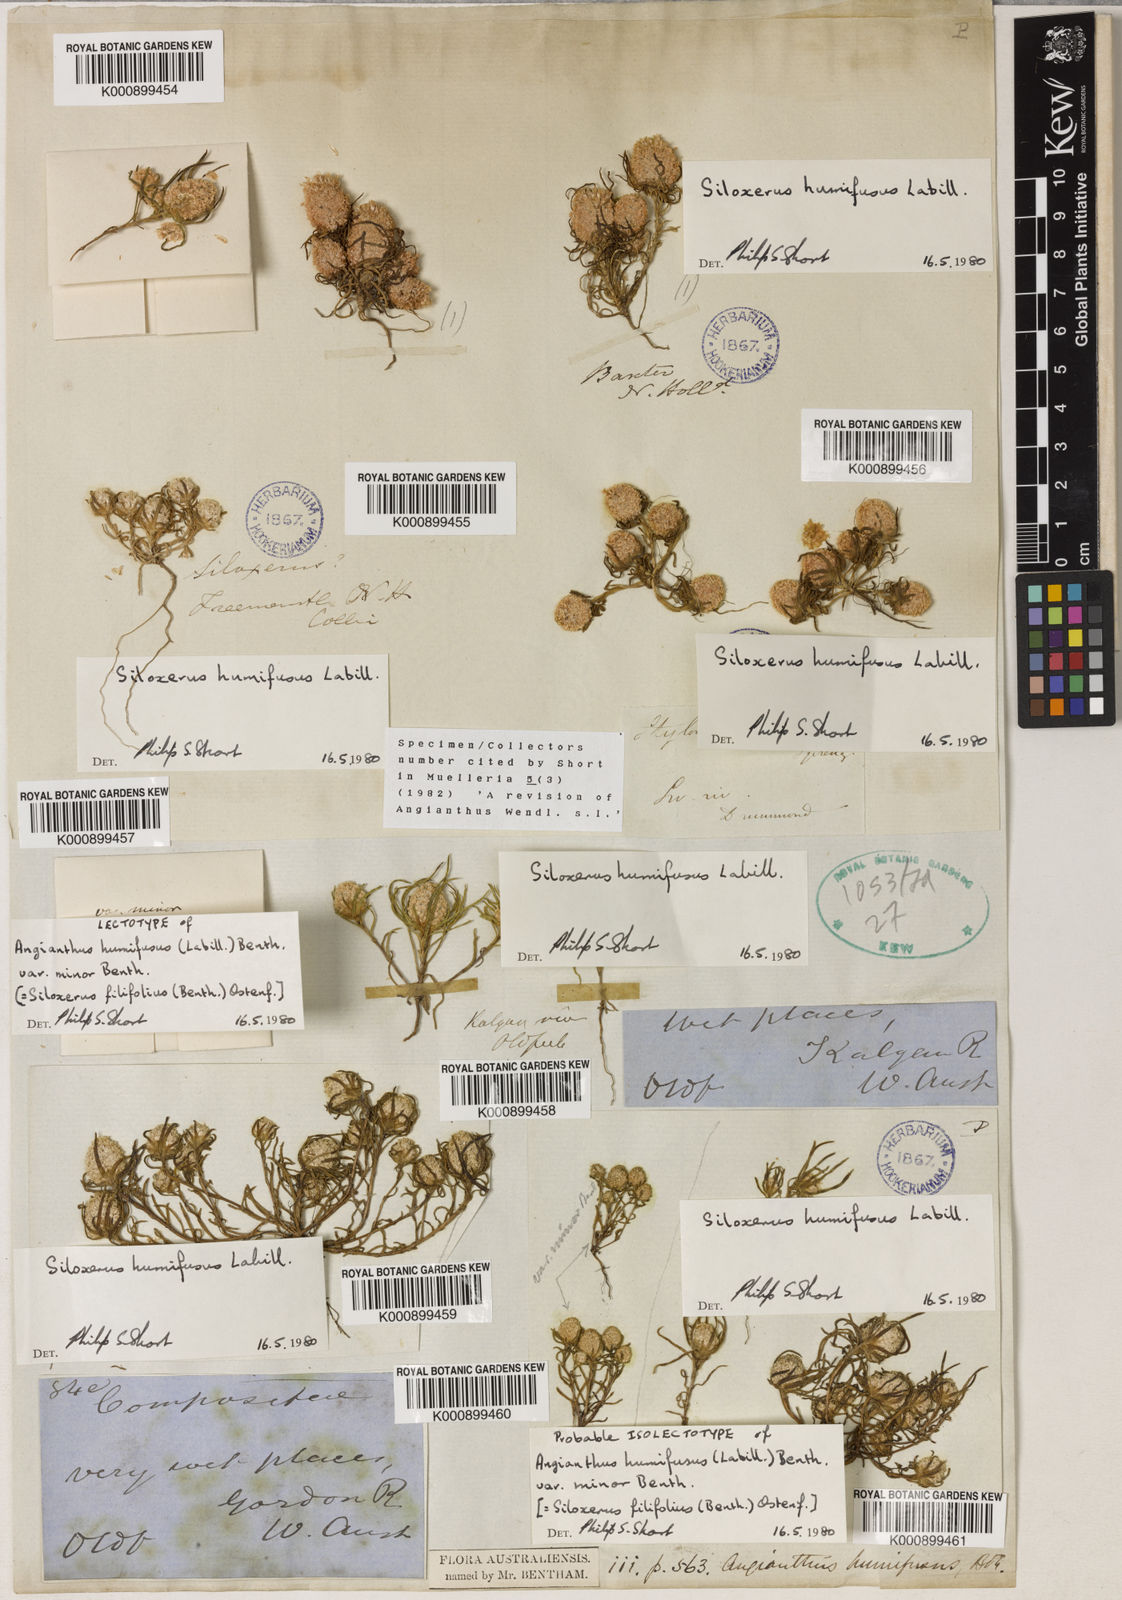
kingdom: Plantae
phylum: Tracheophyta
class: Magnoliopsida
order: Asterales
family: Asteraceae
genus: Siloxerus
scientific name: Siloxerus filifolius
